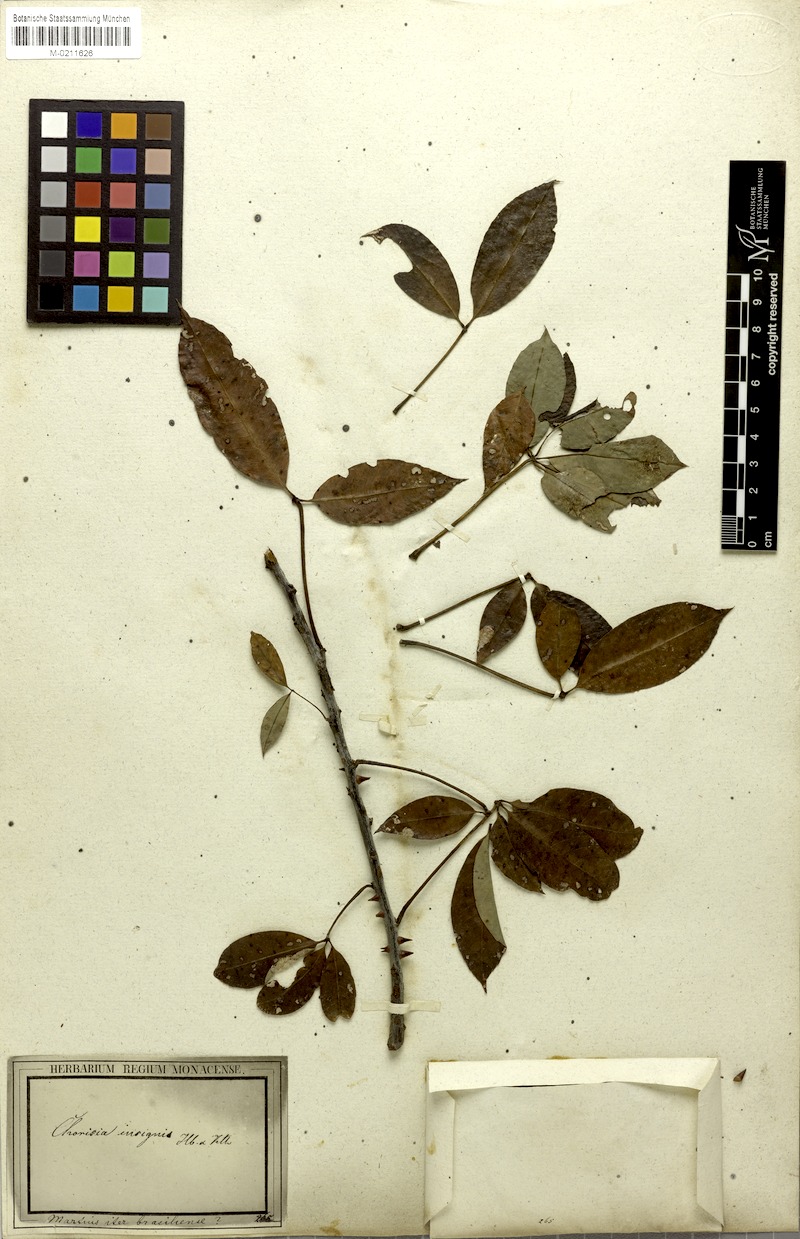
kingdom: Plantae
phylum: Tracheophyta
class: Magnoliopsida
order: Malvales
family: Malvaceae
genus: Ceiba
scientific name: Ceiba erianthos
